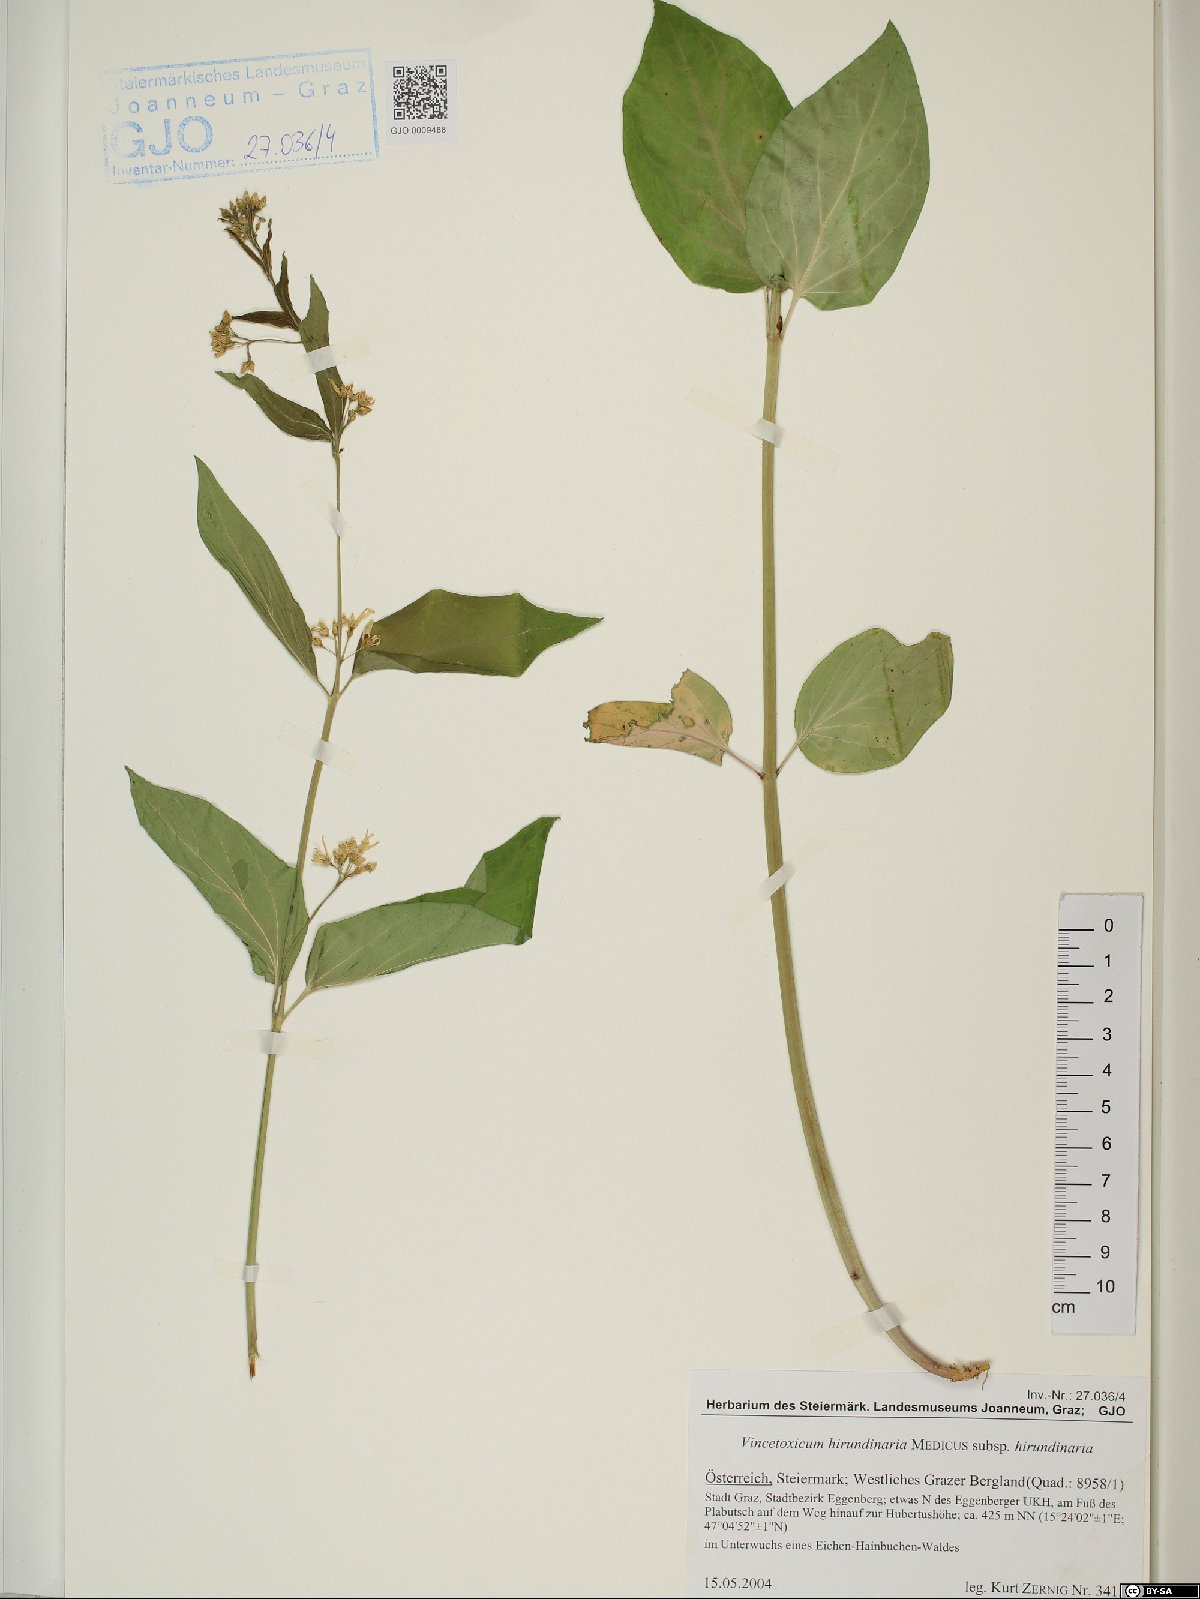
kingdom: Plantae
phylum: Tracheophyta
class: Magnoliopsida
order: Gentianales
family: Apocynaceae
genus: Vincetoxicum
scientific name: Vincetoxicum hirundinaria
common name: White swallowwort
